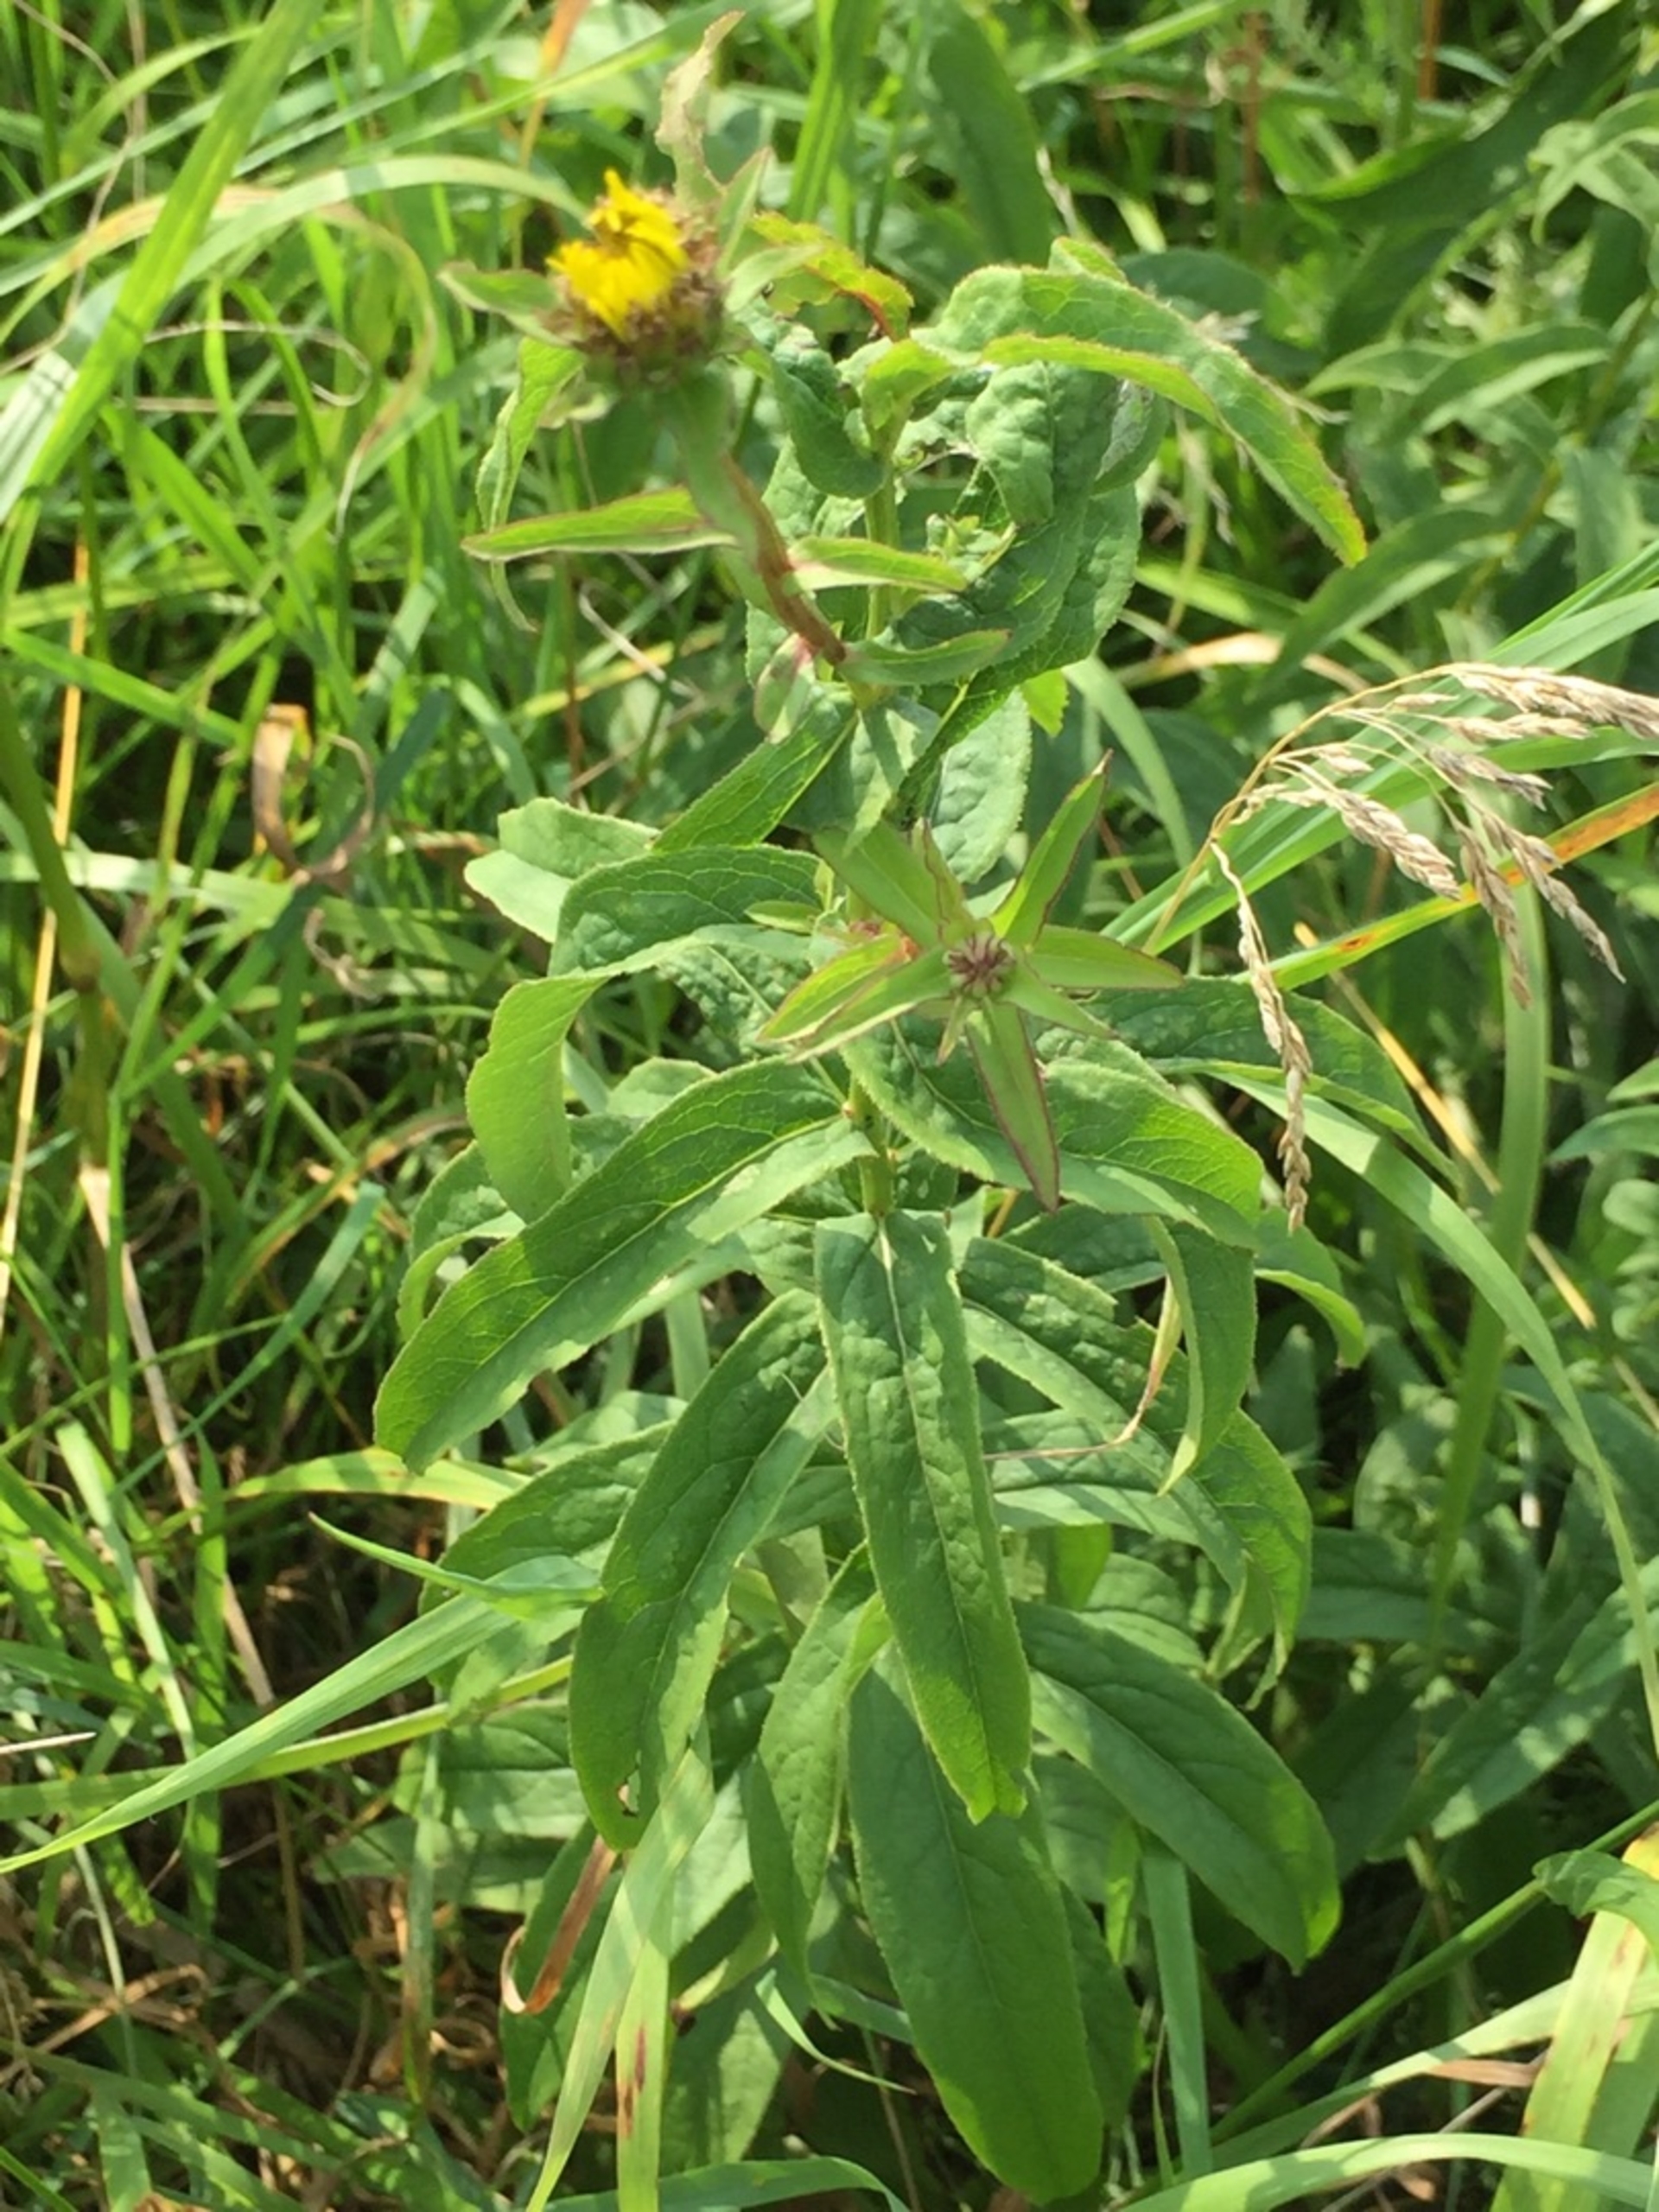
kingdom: Plantae
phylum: Tracheophyta
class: Magnoliopsida
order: Asterales
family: Asteraceae
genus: Pentanema
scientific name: Pentanema salicinum
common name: Pile-alant
